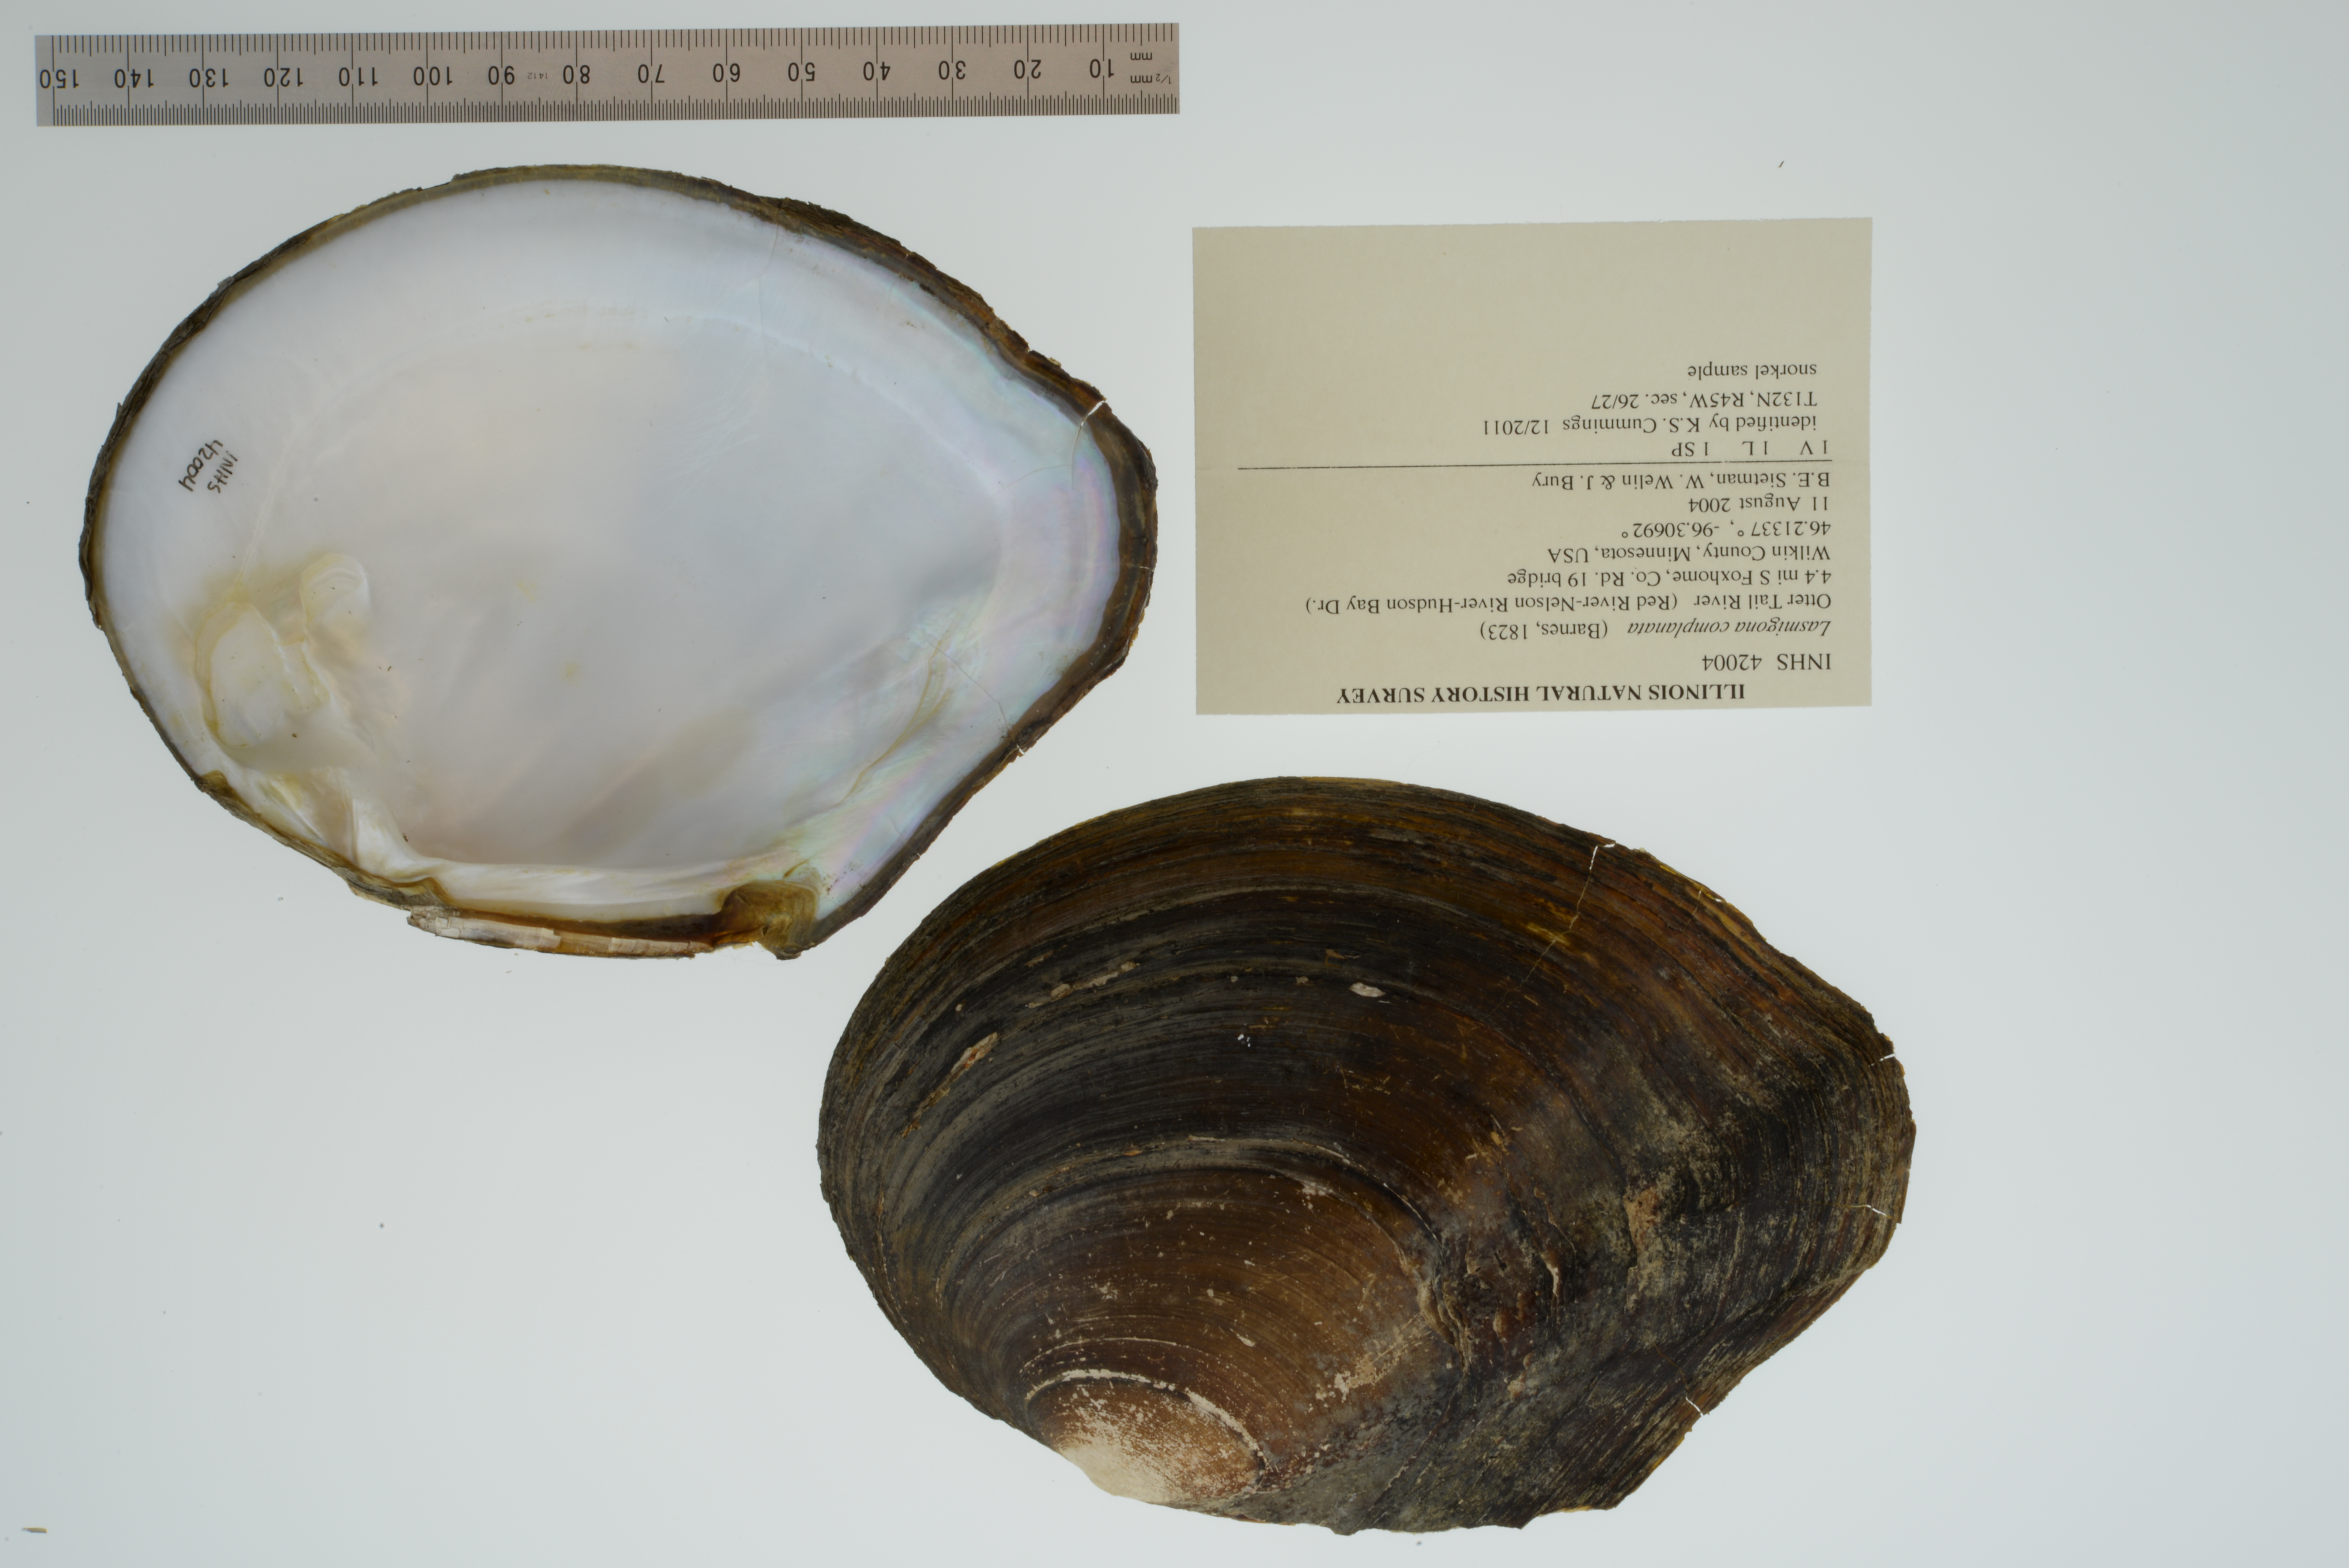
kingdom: Animalia
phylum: Mollusca
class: Bivalvia
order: Unionida
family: Unionidae
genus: Lasmigona
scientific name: Lasmigona complanata
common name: White heelsplitter
